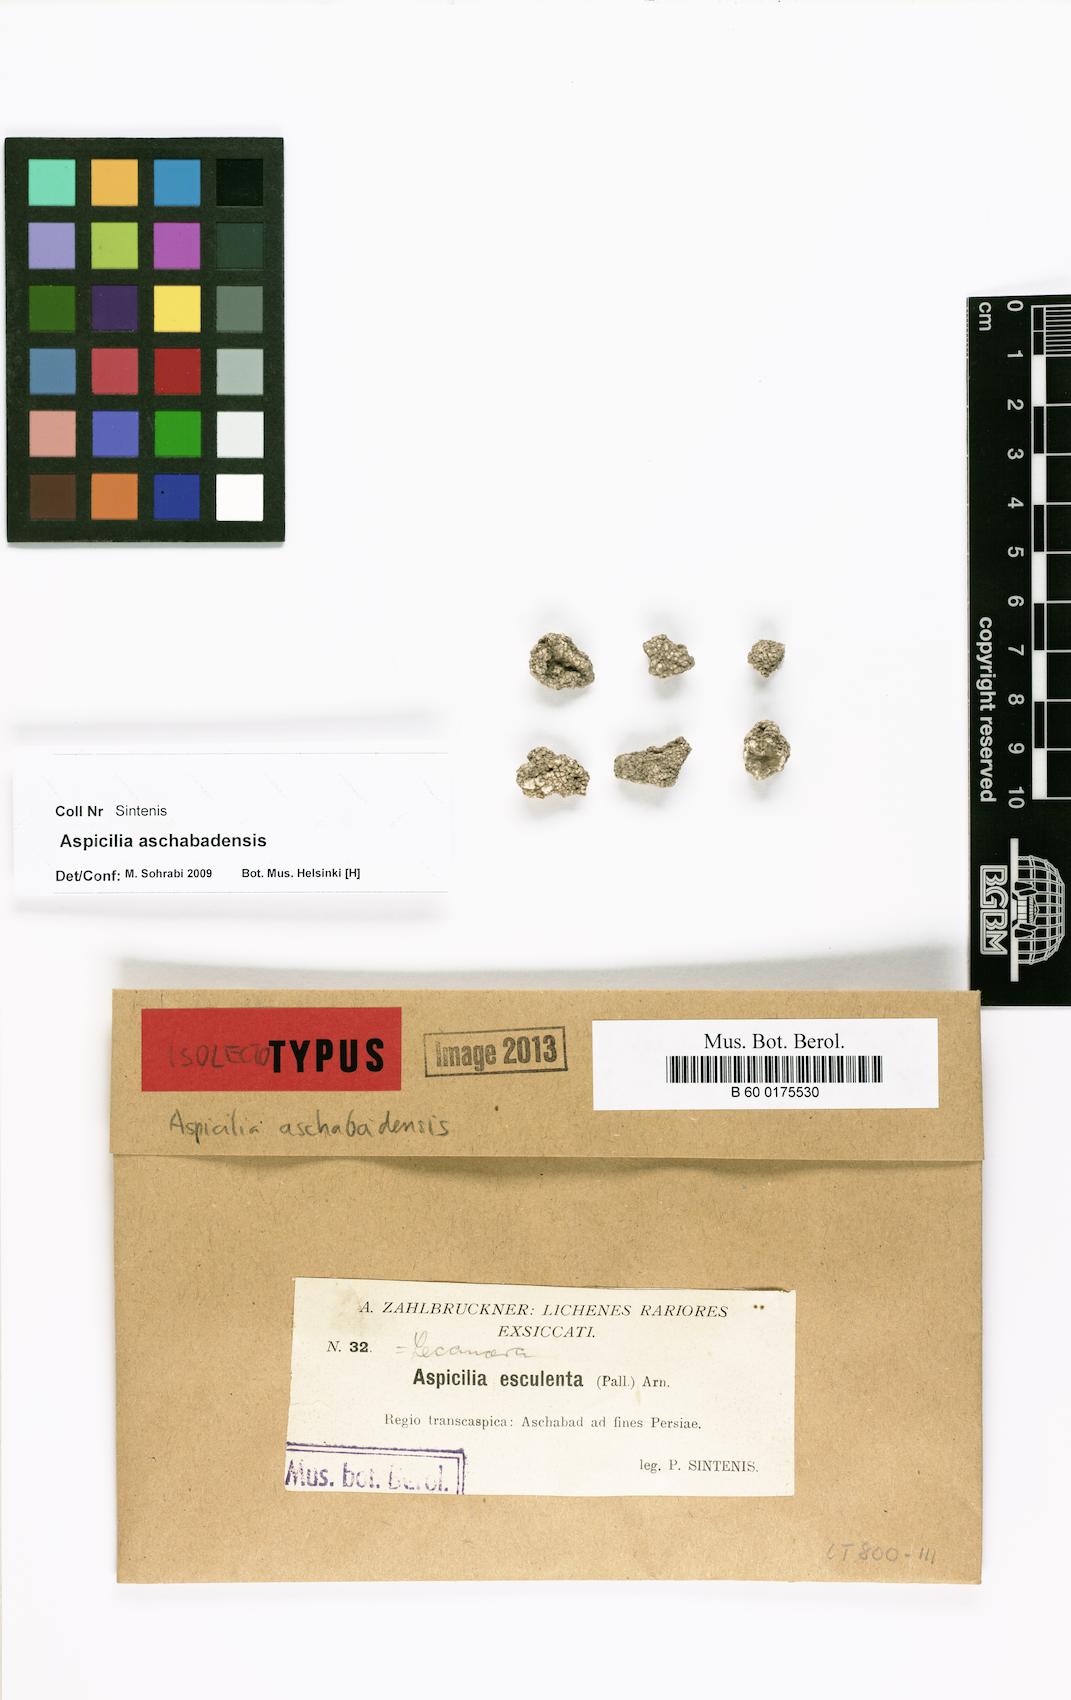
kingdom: Fungi
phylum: Ascomycota
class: Lecanoromycetes
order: Hymeneliales
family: Hymeneliaceae
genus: Aspicilia
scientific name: Aspicilia
